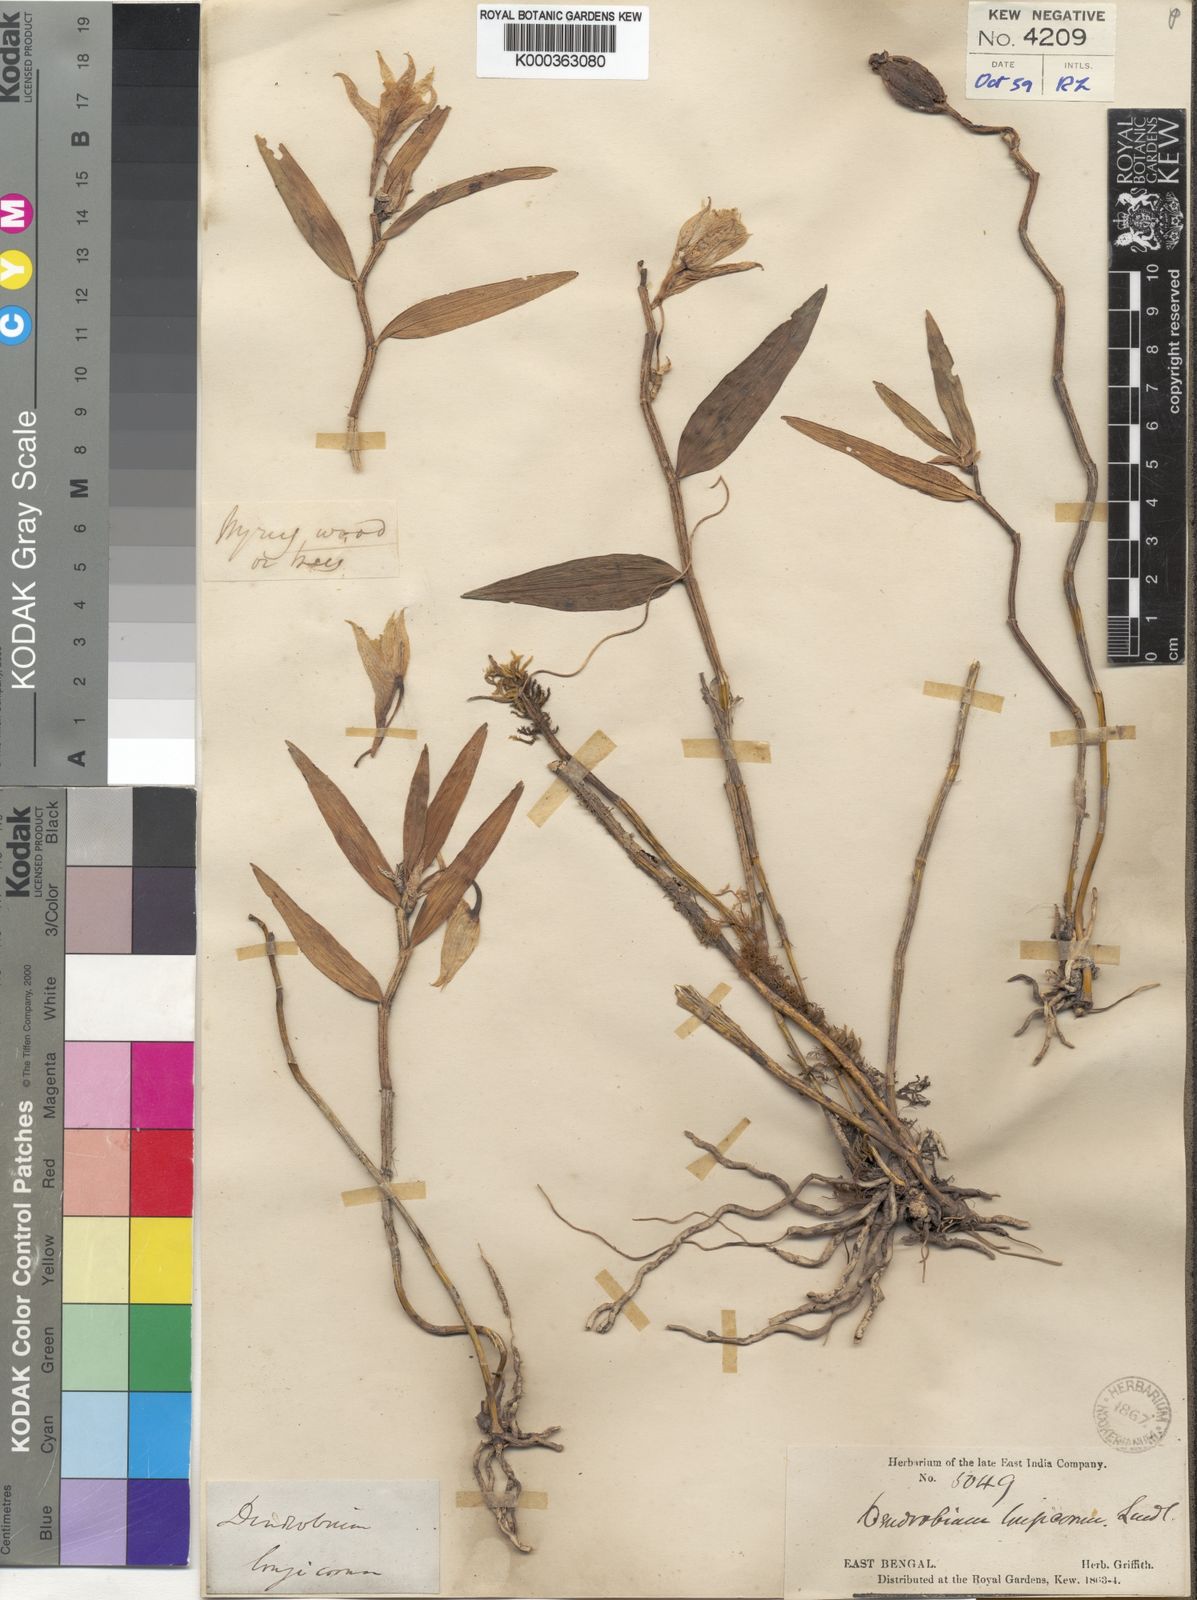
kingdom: Plantae
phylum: Tracheophyta
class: Liliopsida
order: Asparagales
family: Orchidaceae
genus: Dendrobium
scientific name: Dendrobium longicornu
